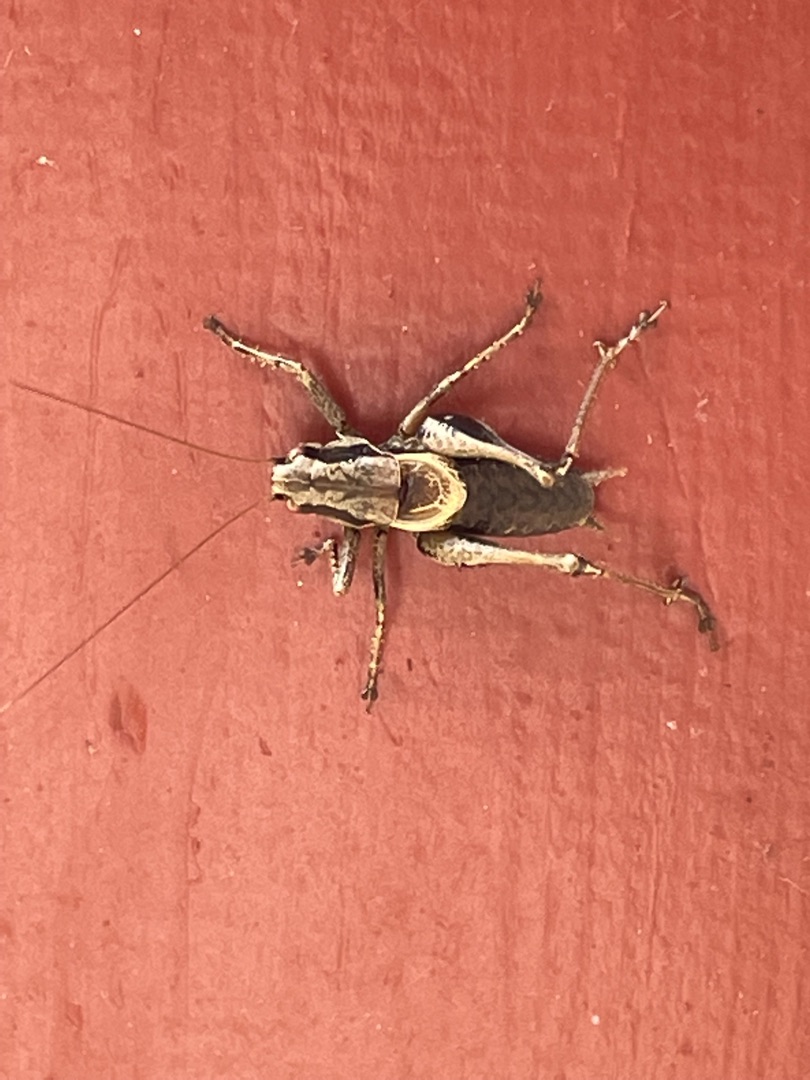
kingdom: Animalia
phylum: Arthropoda
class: Insecta
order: Orthoptera
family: Tettigoniidae
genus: Pholidoptera
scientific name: Pholidoptera griseoaptera
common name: Buskgræshoppe
